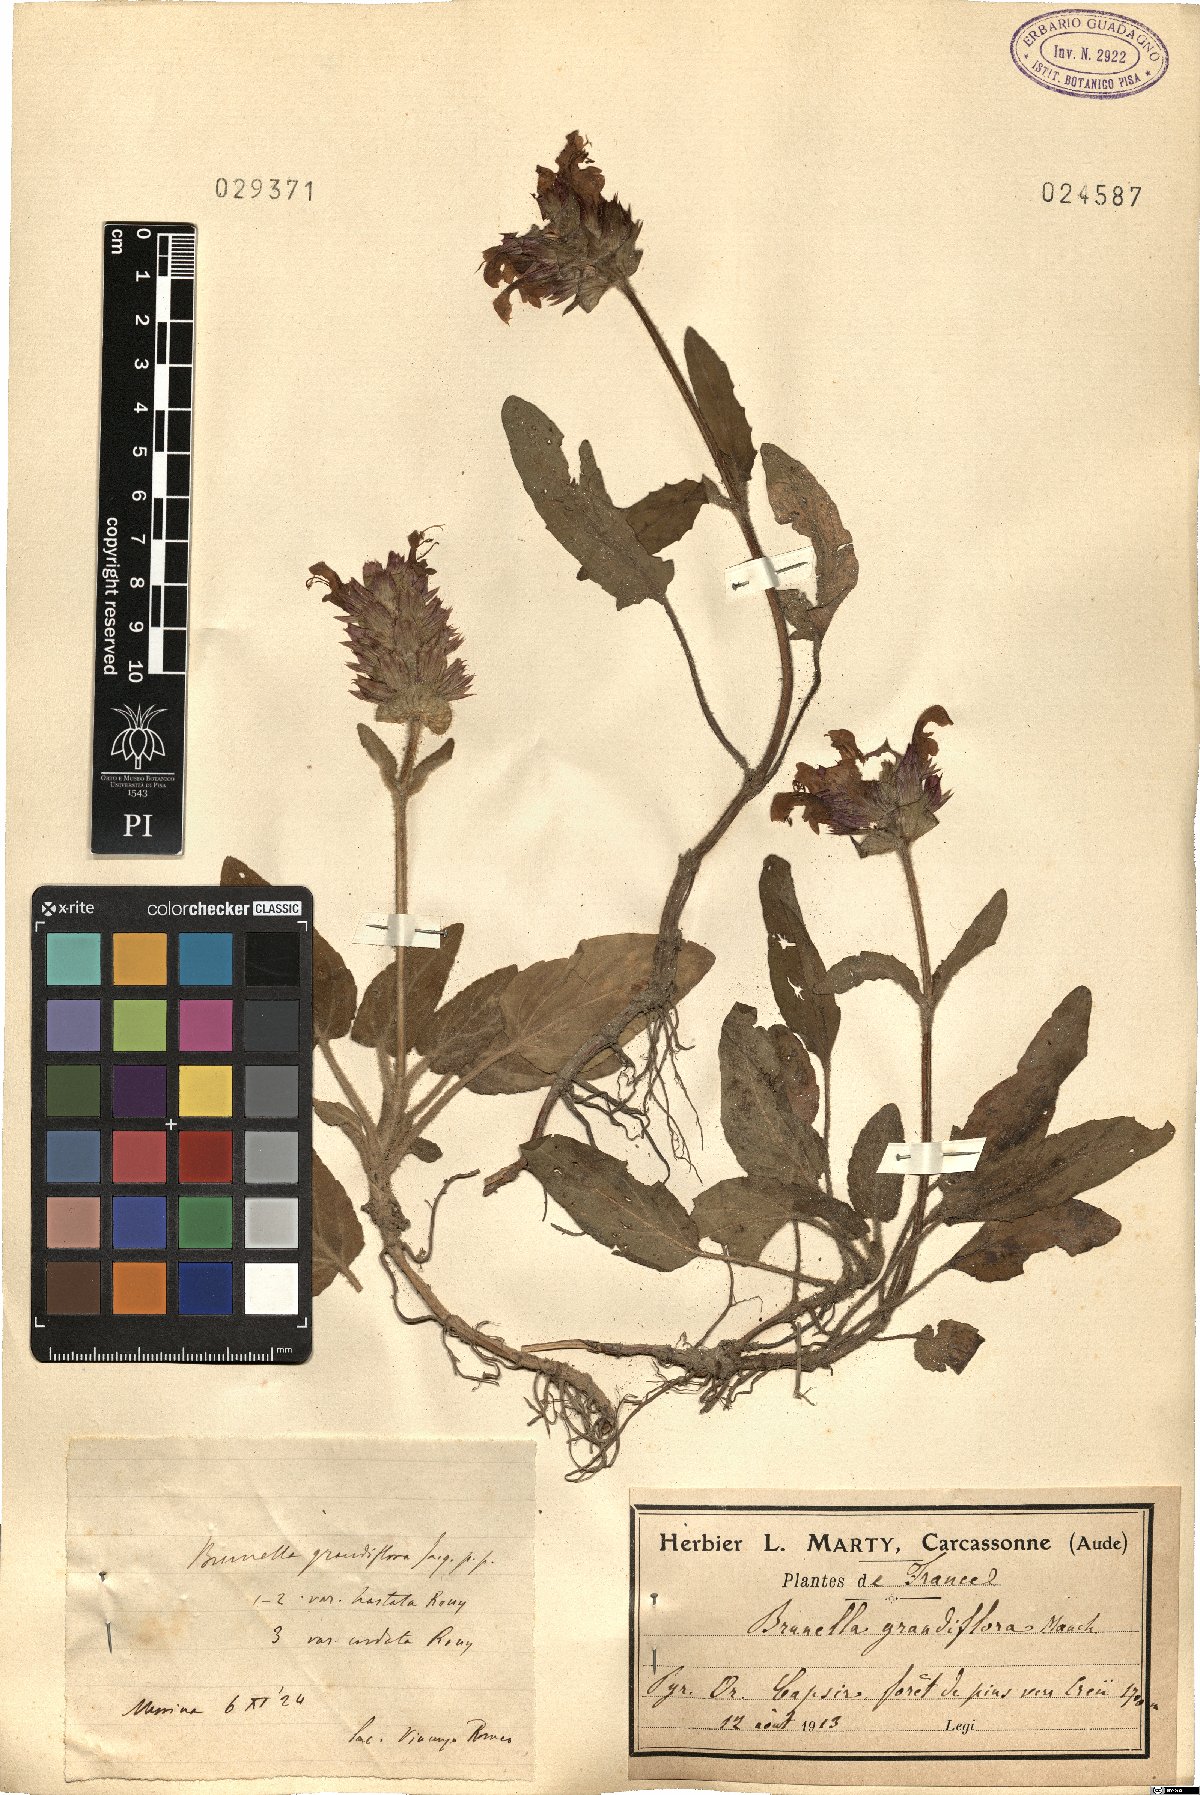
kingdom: Plantae
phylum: Tracheophyta
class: Magnoliopsida
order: Lamiales
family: Lamiaceae
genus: Prunella
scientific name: Prunella grandiflora
